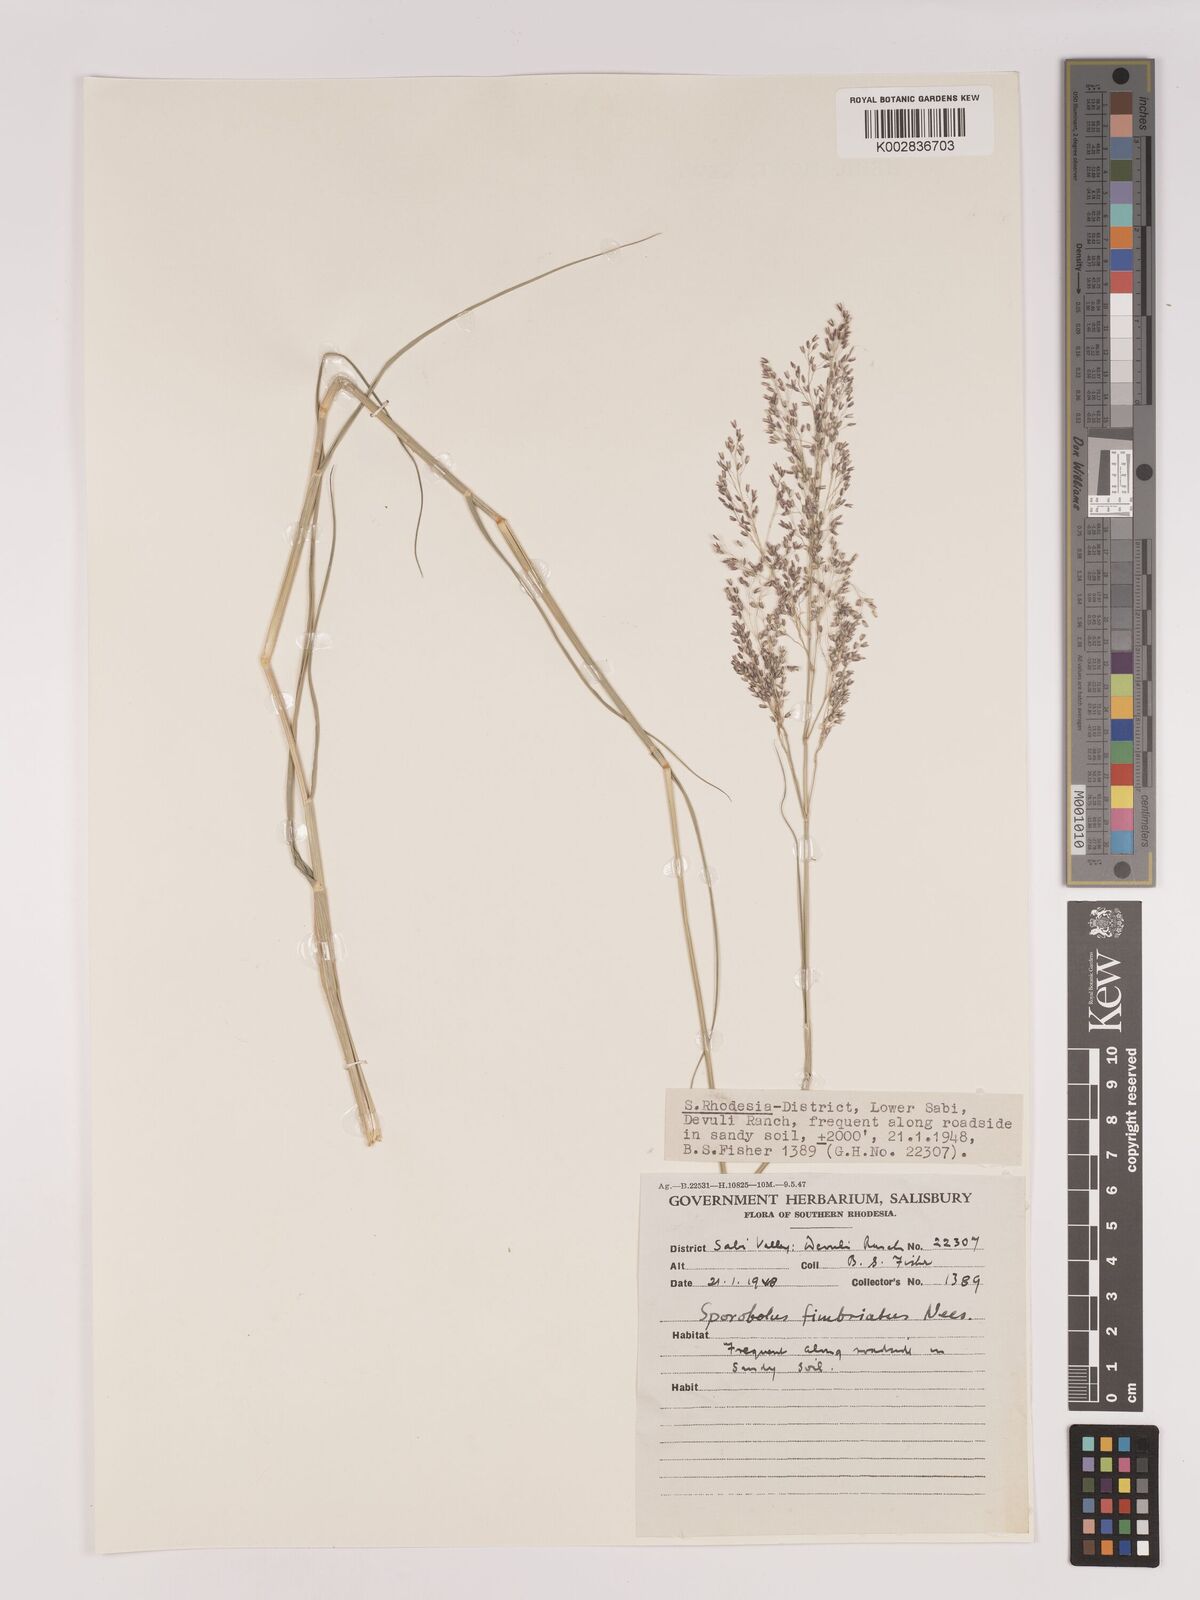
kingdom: Plantae
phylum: Tracheophyta
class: Liliopsida
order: Poales
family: Poaceae
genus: Tricholaena
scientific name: Tricholaena monachne
